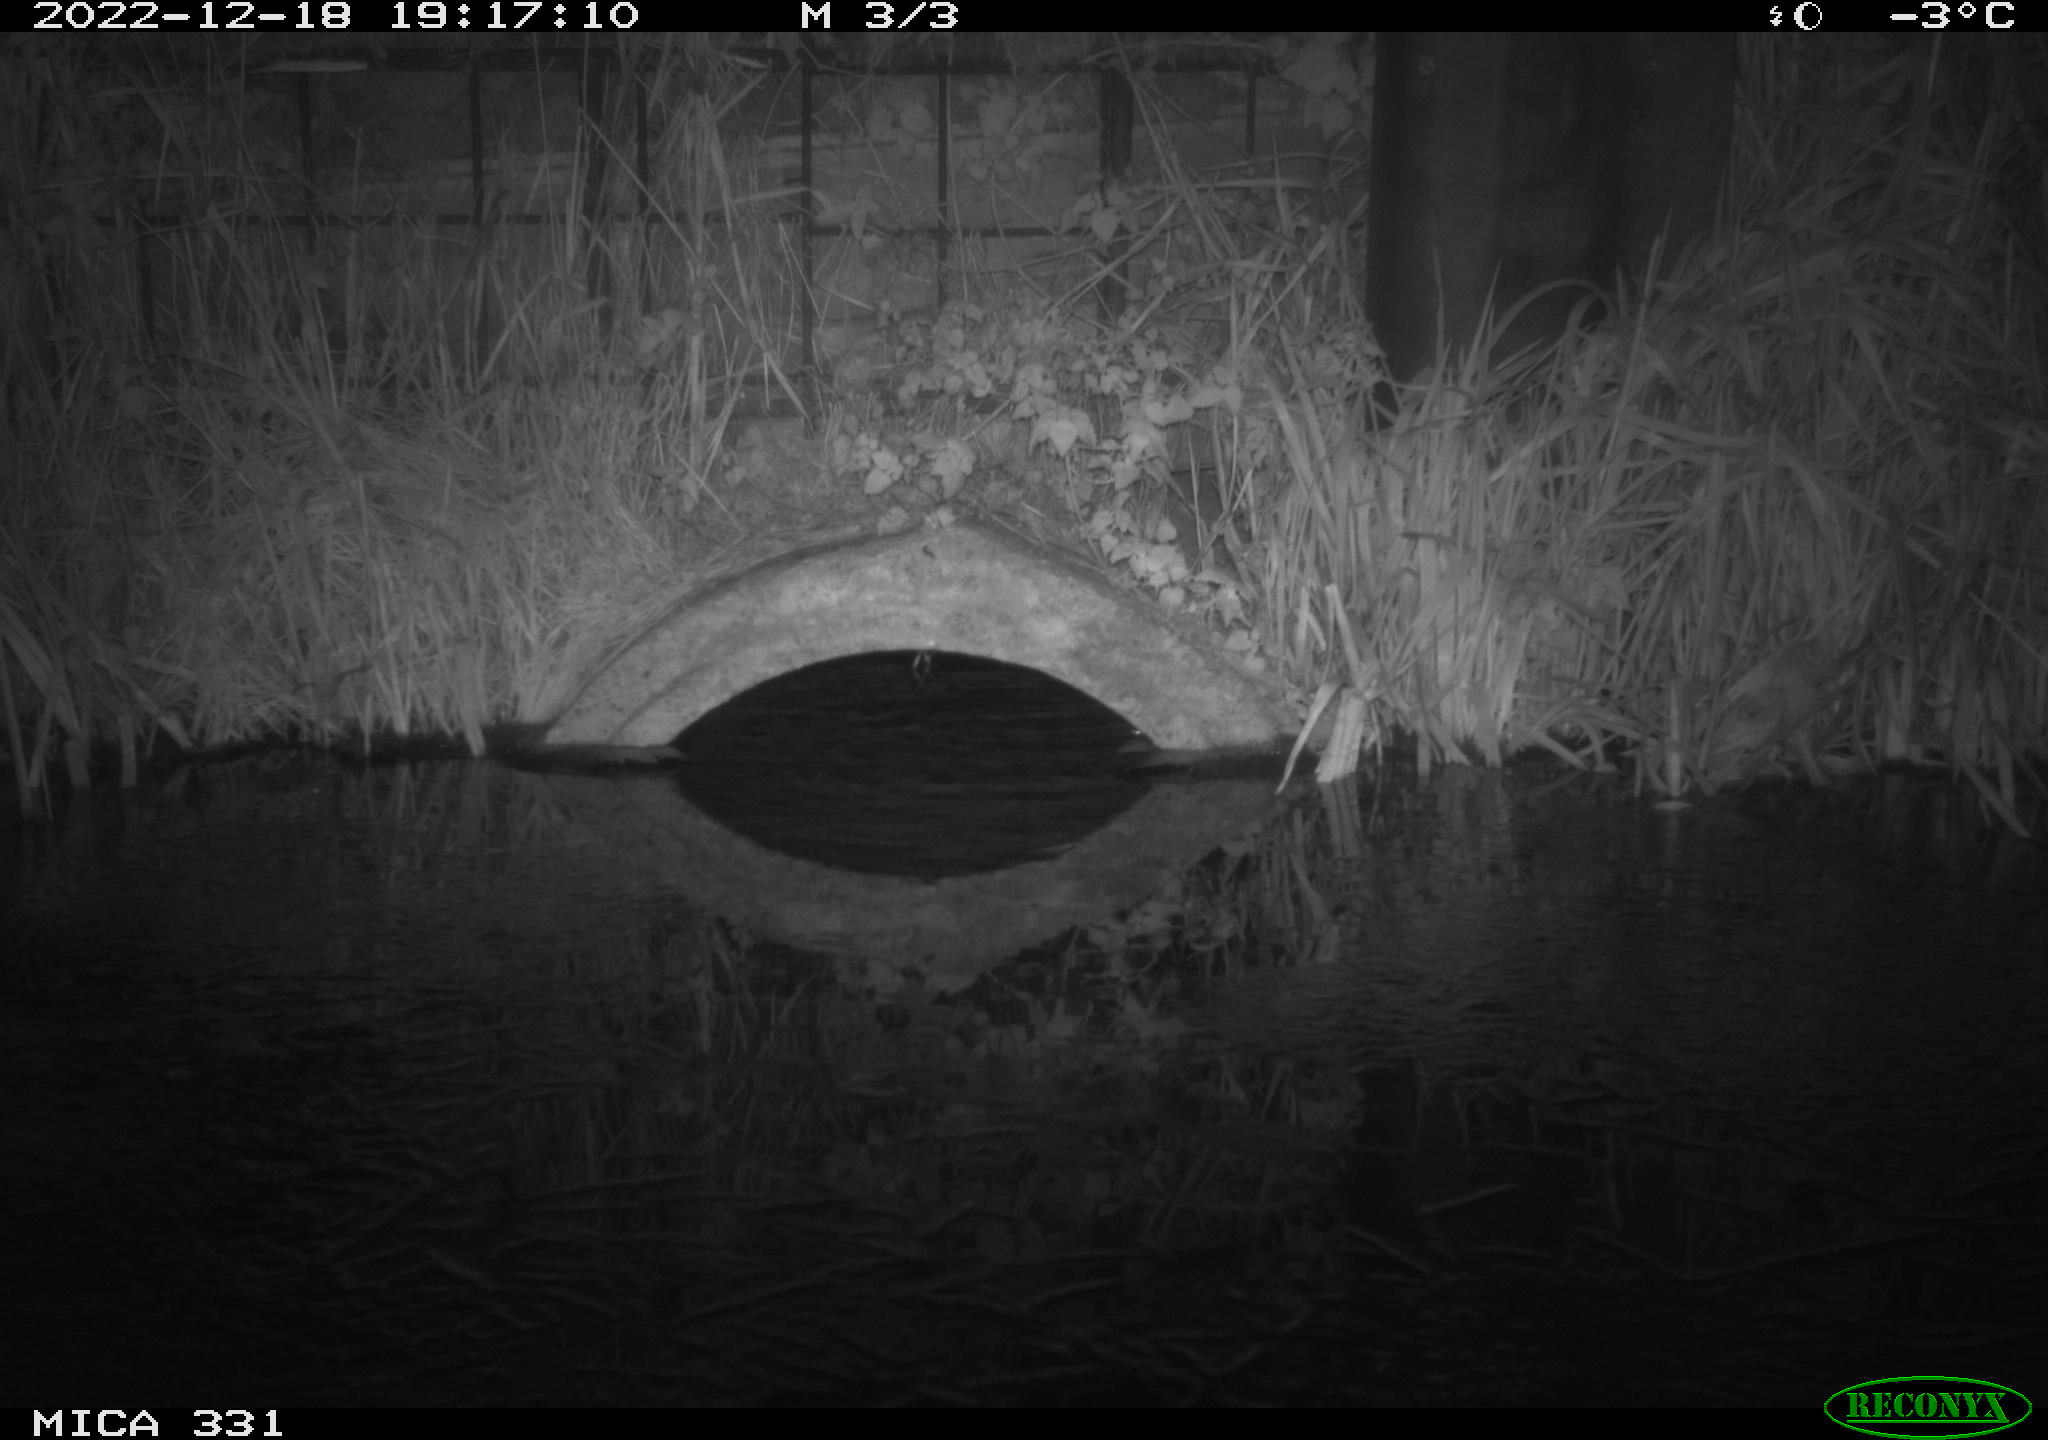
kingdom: Animalia
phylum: Chordata
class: Mammalia
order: Rodentia
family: Muridae
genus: Rattus
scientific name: Rattus norvegicus
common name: Brown rat
